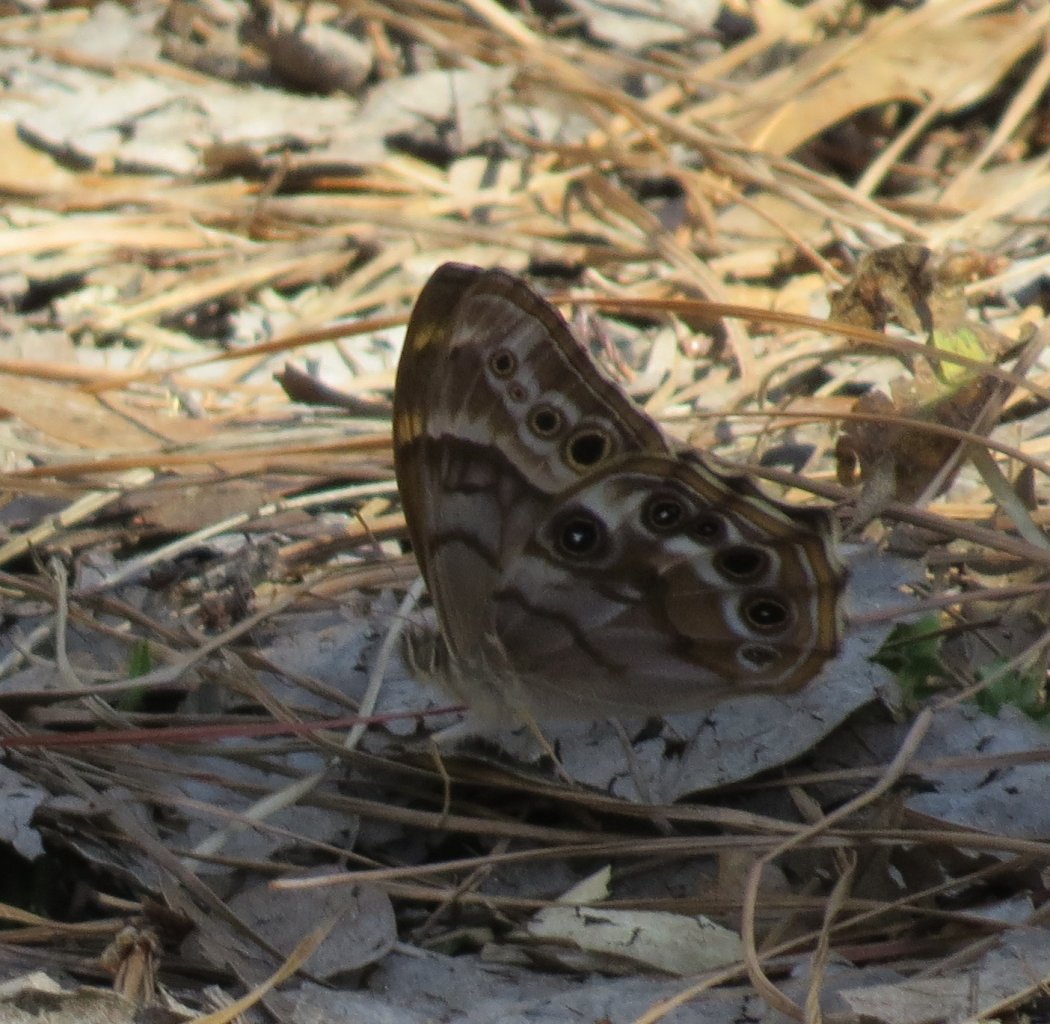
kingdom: Animalia
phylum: Arthropoda
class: Insecta
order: Lepidoptera
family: Nymphalidae
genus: Enodia
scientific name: Enodia portlandia
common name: Southern Pearly Eye
